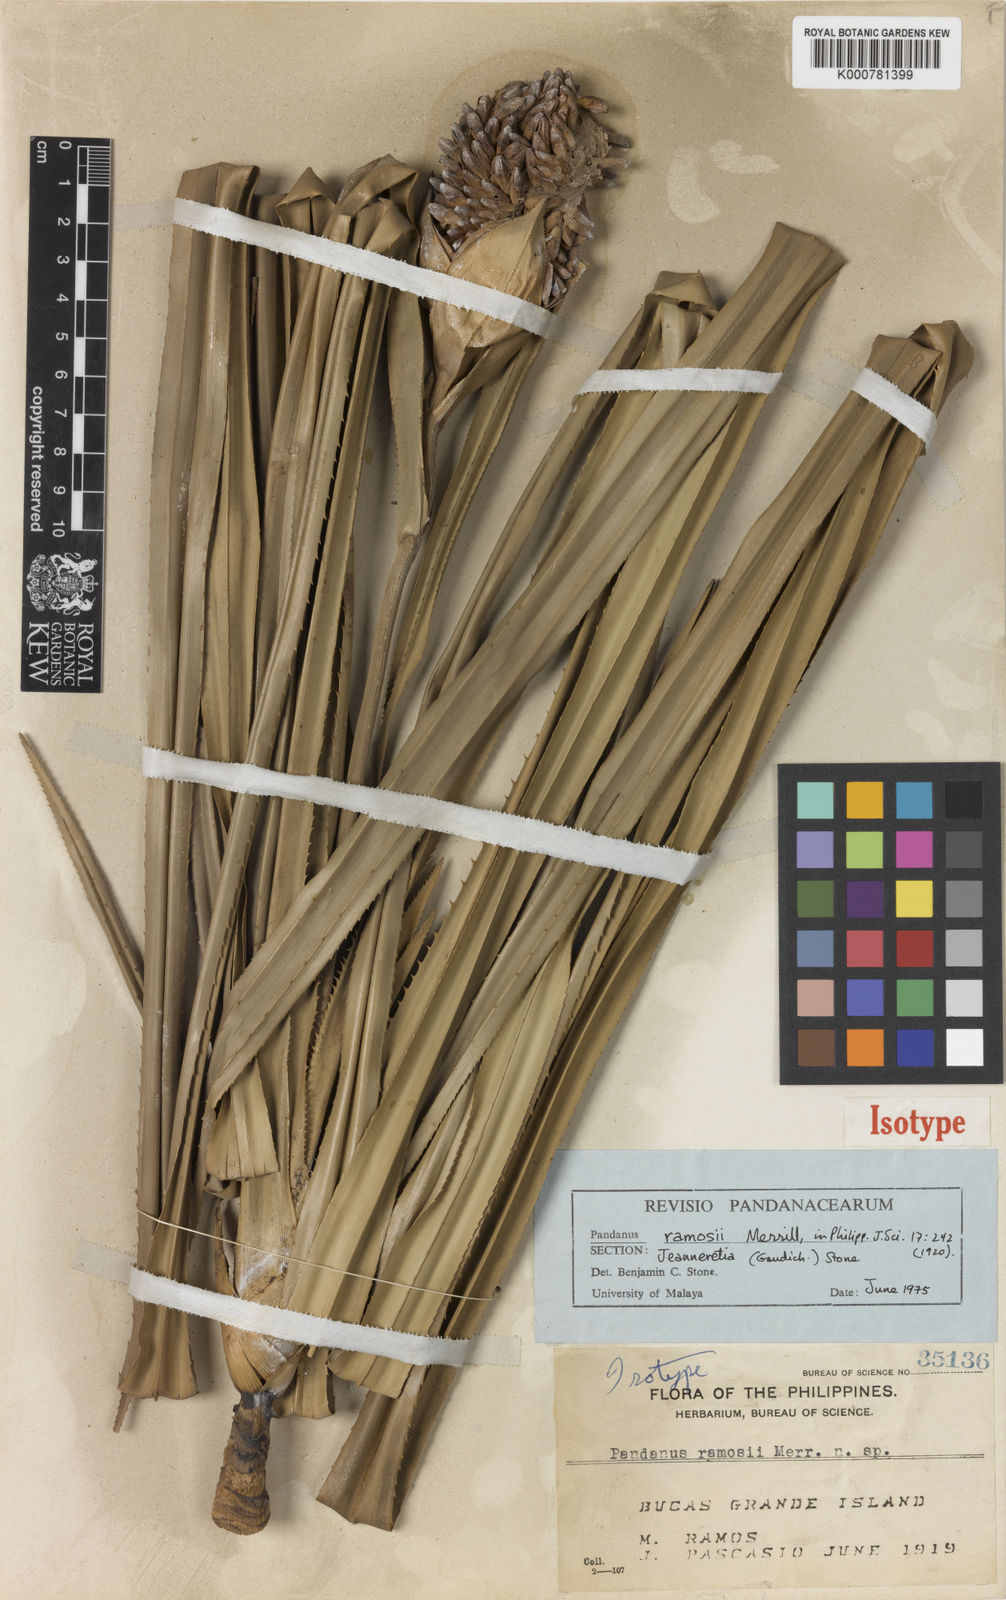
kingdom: Plantae
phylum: Tracheophyta
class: Liliopsida
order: Pandanales
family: Pandanaceae
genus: Pandanus
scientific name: Pandanus
